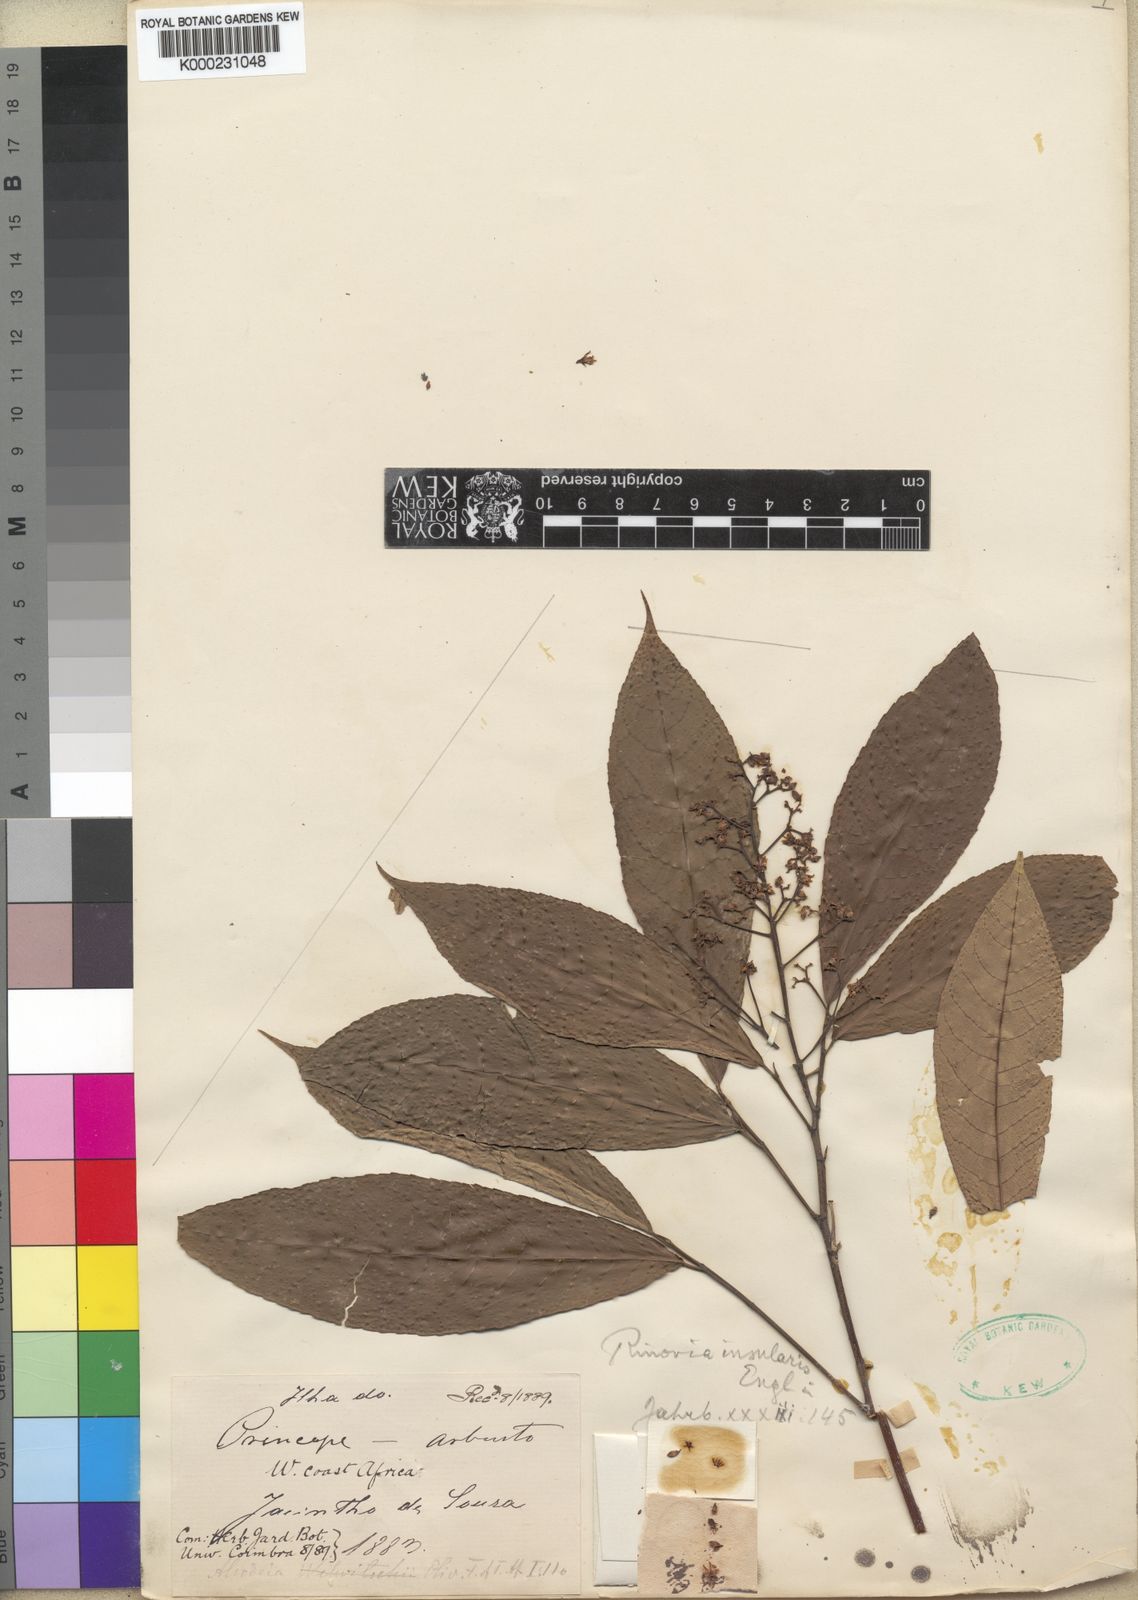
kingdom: Plantae
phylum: Tracheophyta
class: Magnoliopsida
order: Malpighiales
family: Violaceae
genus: Rinorea
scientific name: Rinorea insularis
